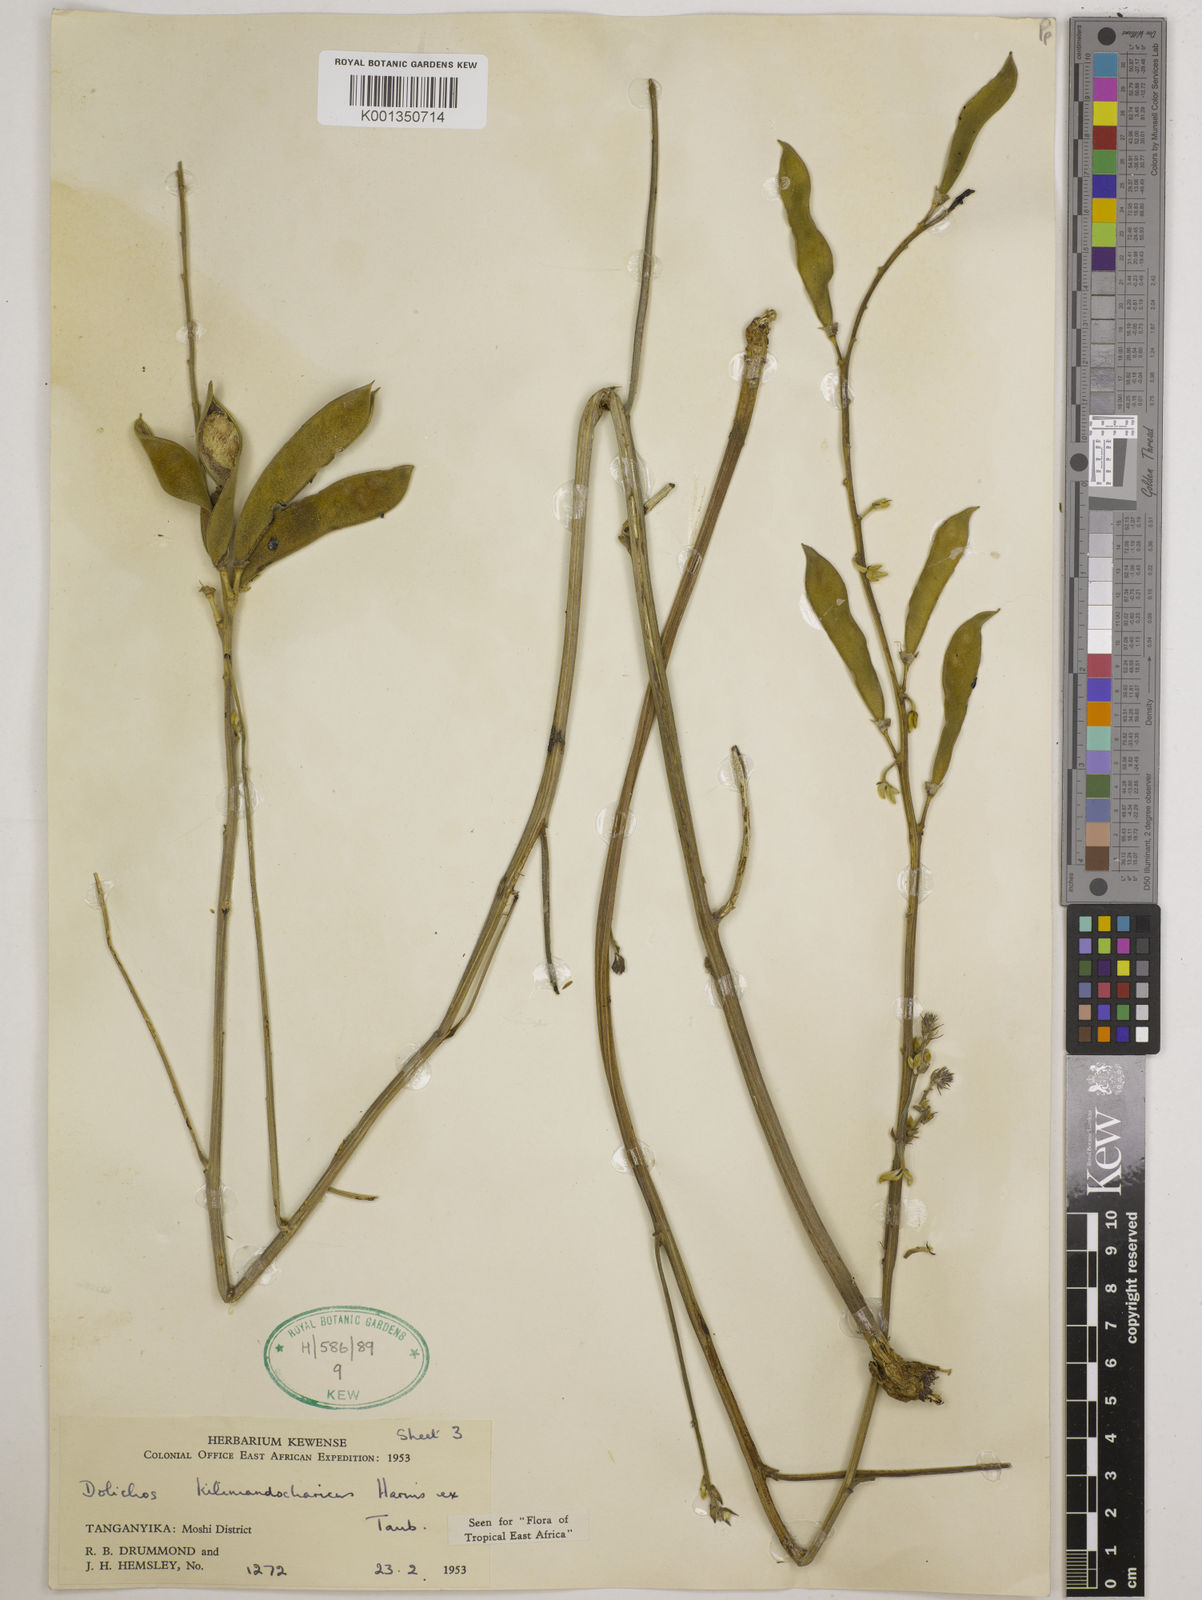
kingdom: Plantae
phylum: Tracheophyta
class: Magnoliopsida
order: Fabales
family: Fabaceae
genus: Dolichos
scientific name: Dolichos kilimandscharicus
